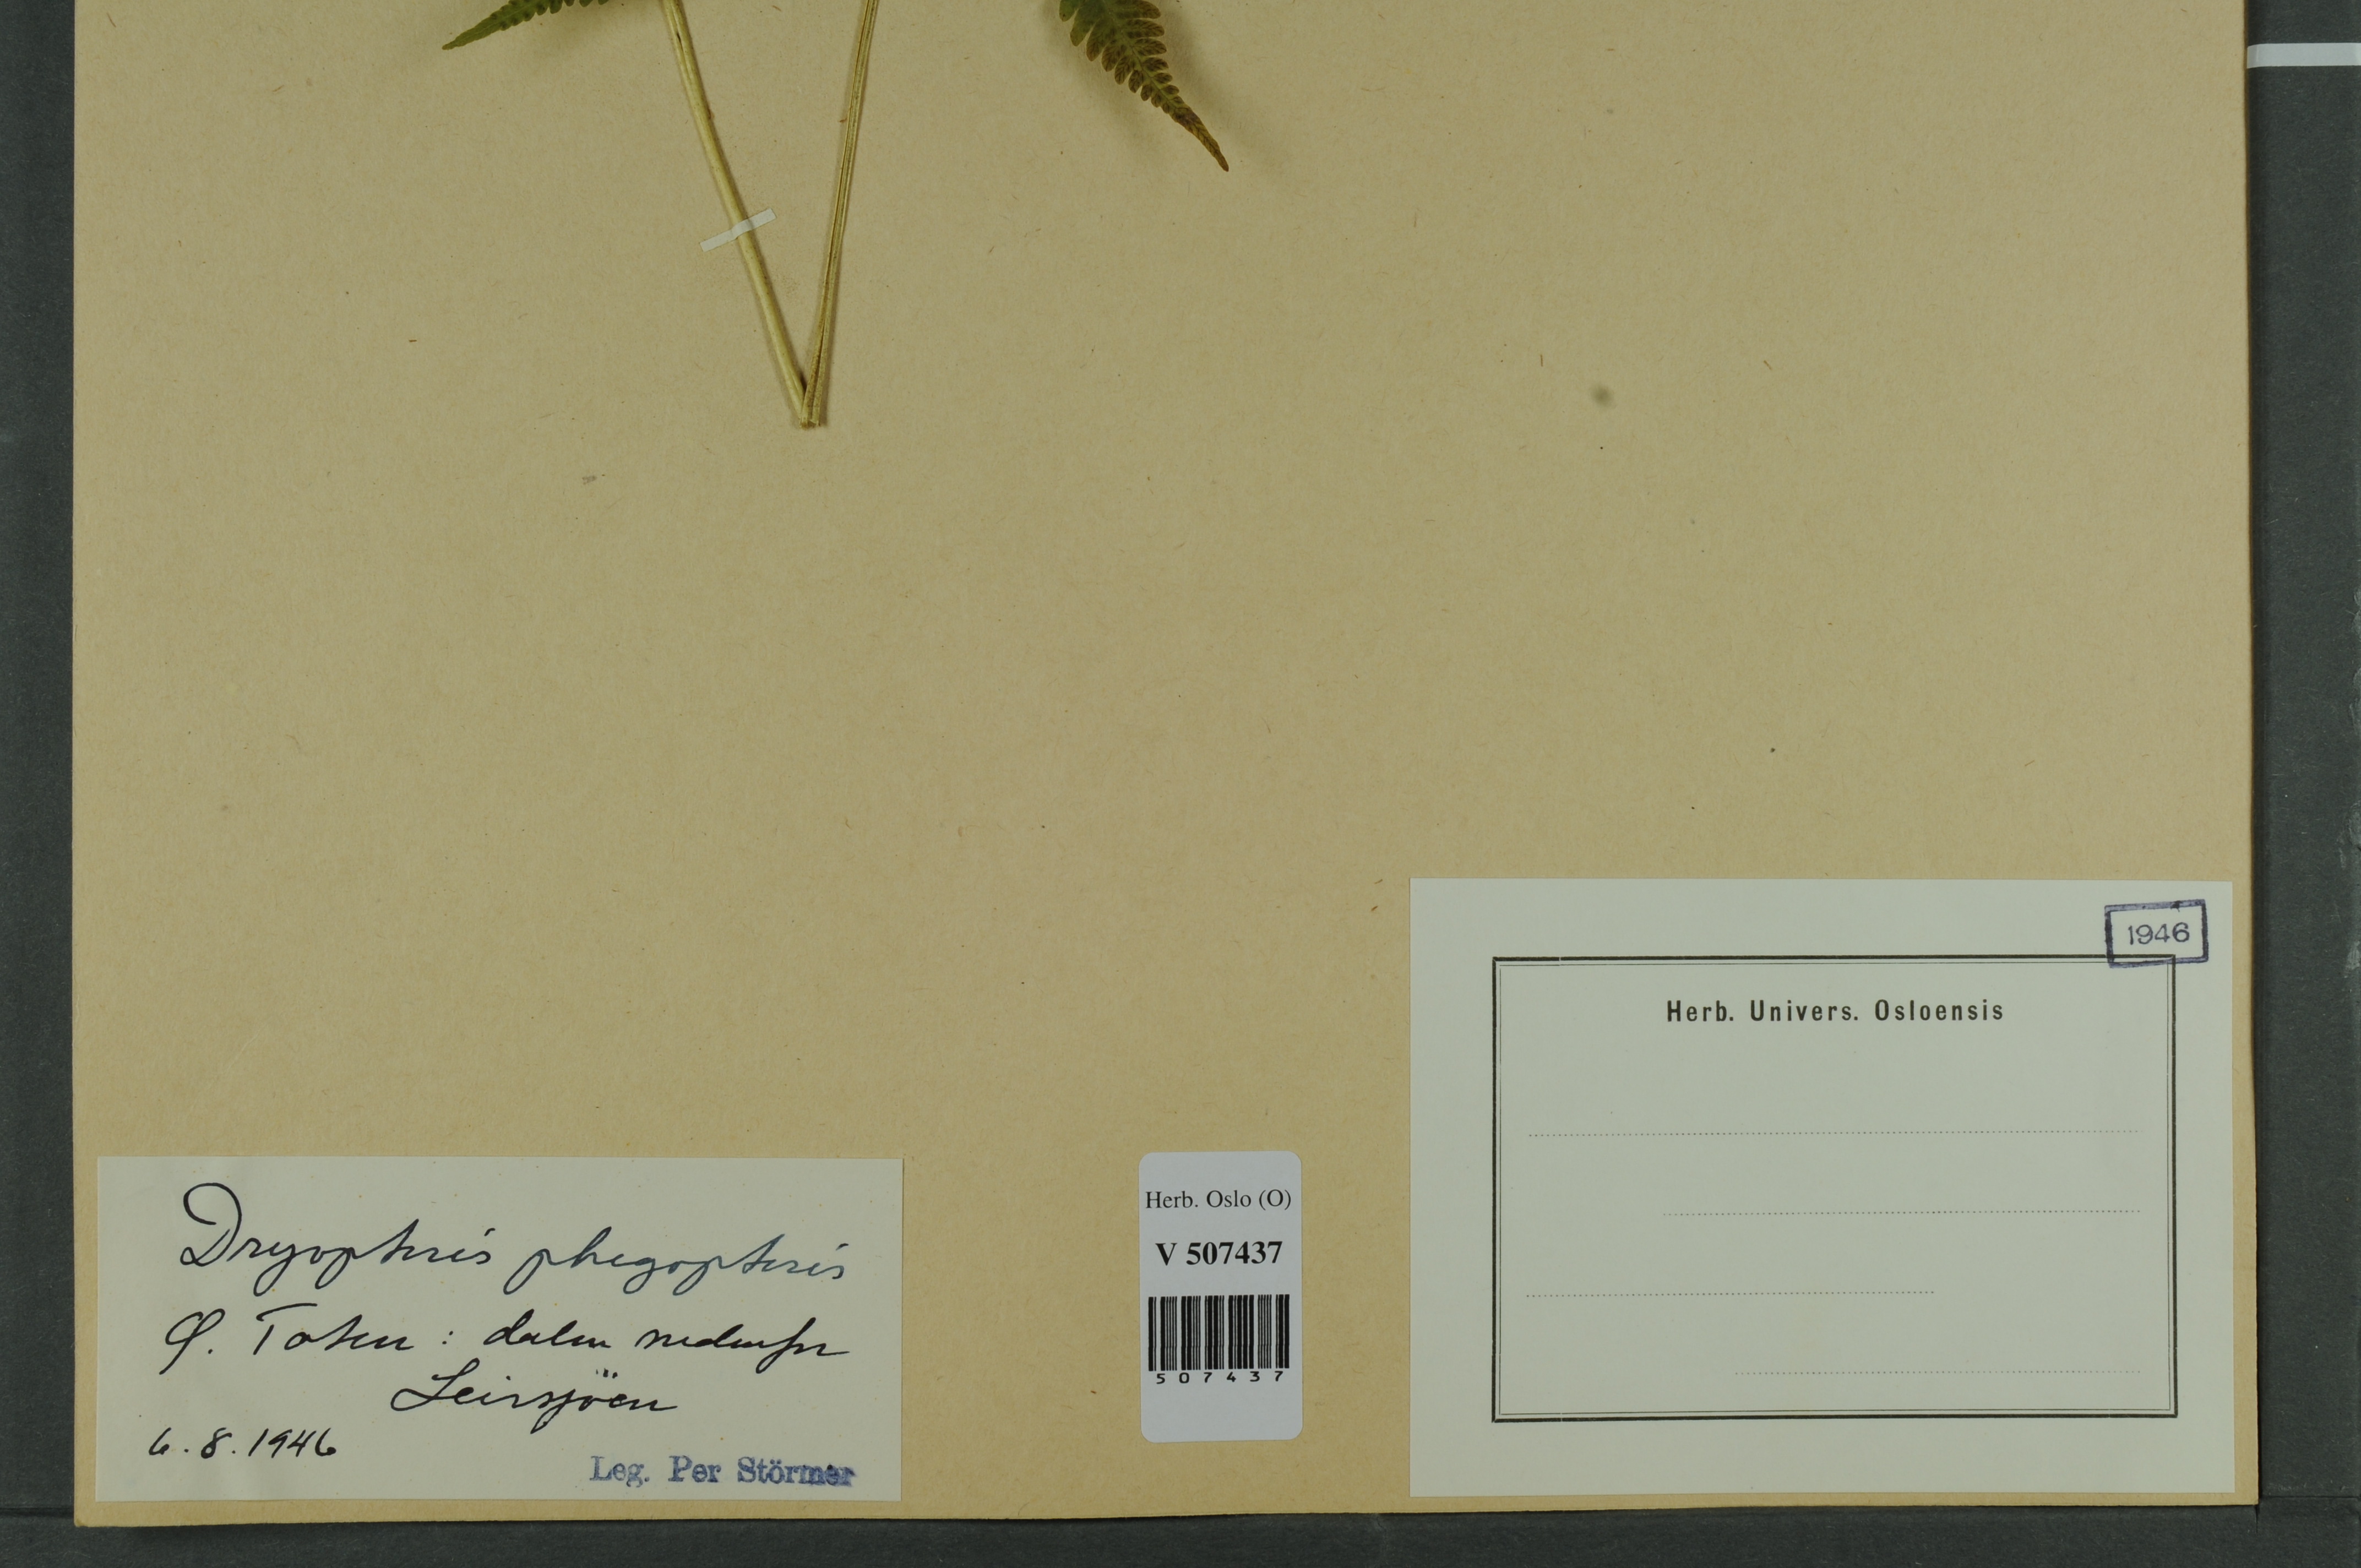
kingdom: Plantae
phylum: Tracheophyta
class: Polypodiopsida
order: Polypodiales
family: Thelypteridaceae
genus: Phegopteris
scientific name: Phegopteris connectilis
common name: Beech fern
